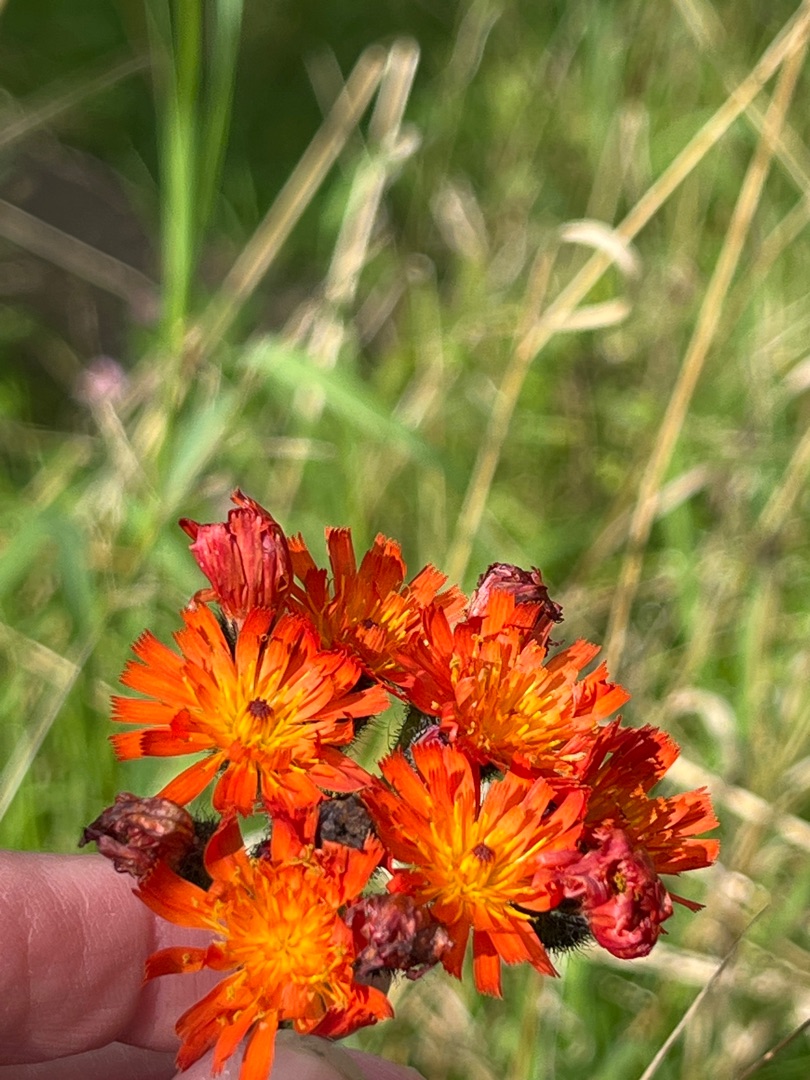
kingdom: Plantae
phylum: Tracheophyta
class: Magnoliopsida
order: Asterales
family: Asteraceae
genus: Pilosella
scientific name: Pilosella aurantiaca
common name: Pomerans-høgeurt
